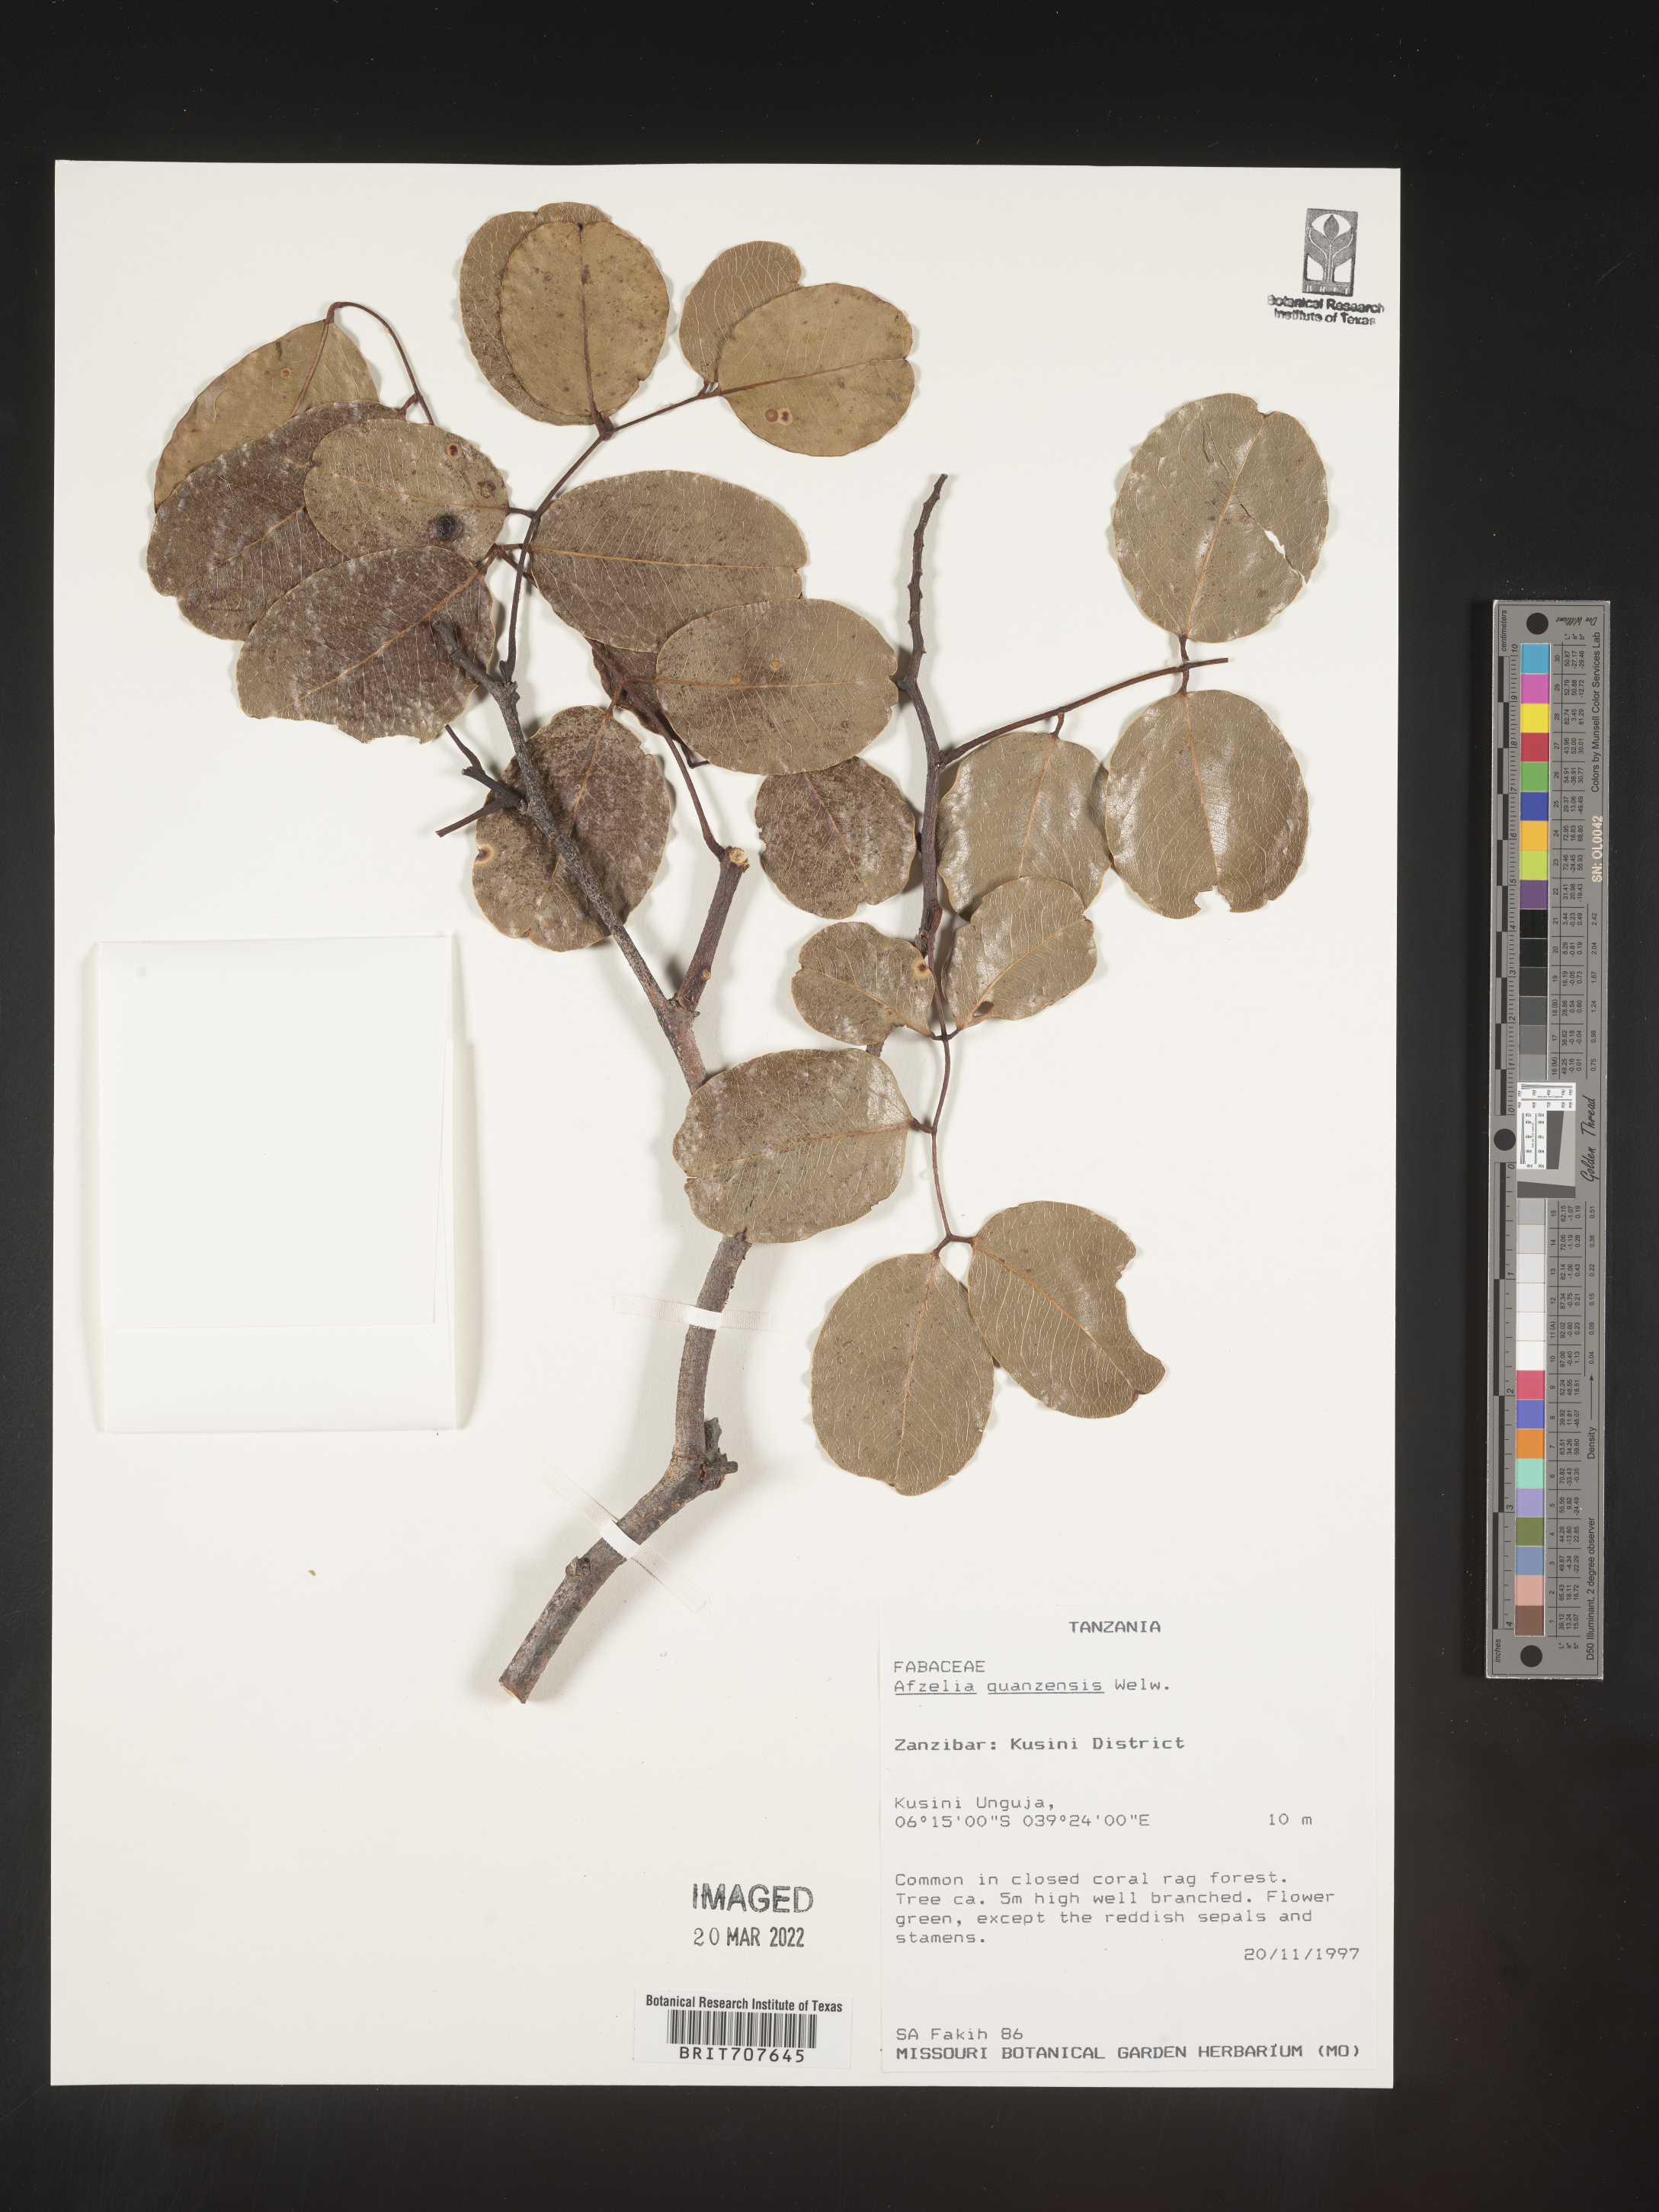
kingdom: Plantae
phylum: Tracheophyta
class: Magnoliopsida
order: Fabales
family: Fabaceae
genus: Afzelia
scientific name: Afzelia
